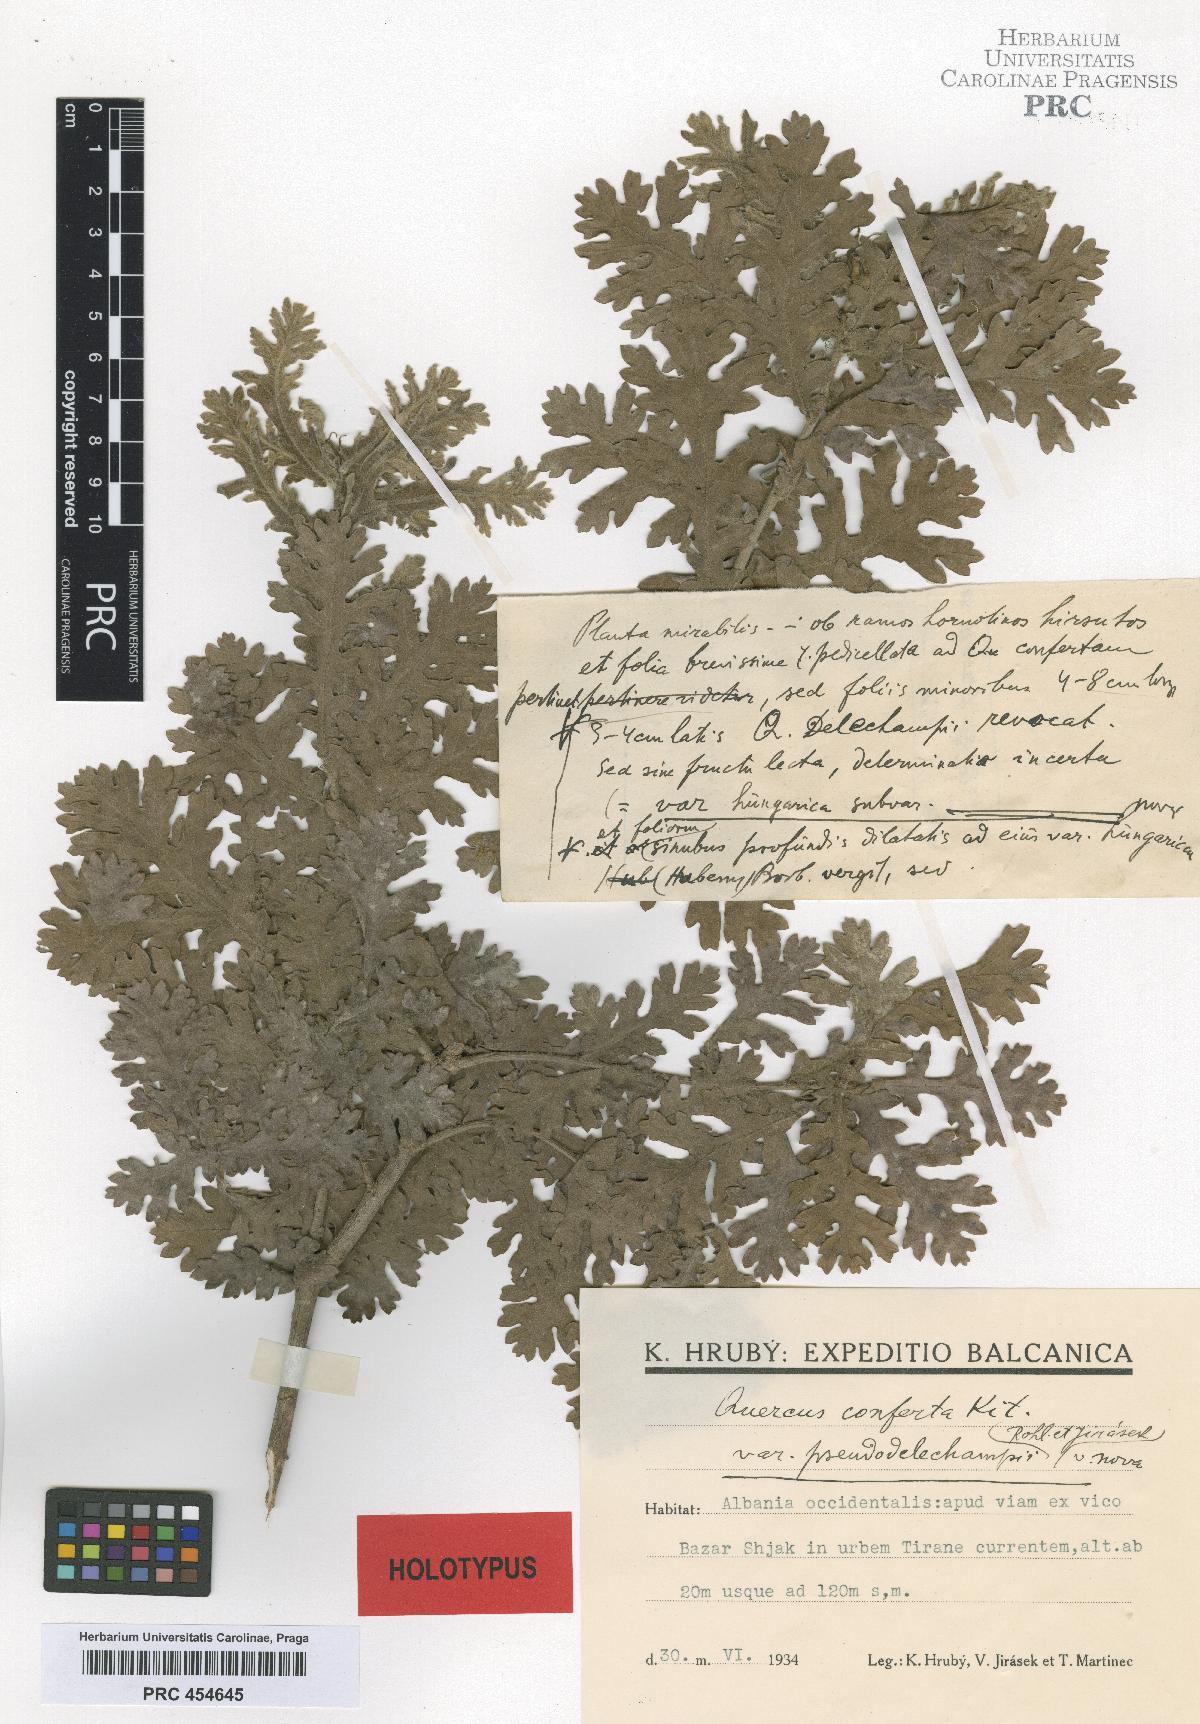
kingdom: Plantae
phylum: Tracheophyta
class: Magnoliopsida
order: Fagales
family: Fagaceae
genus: Quercus
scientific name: Quercus conferta
